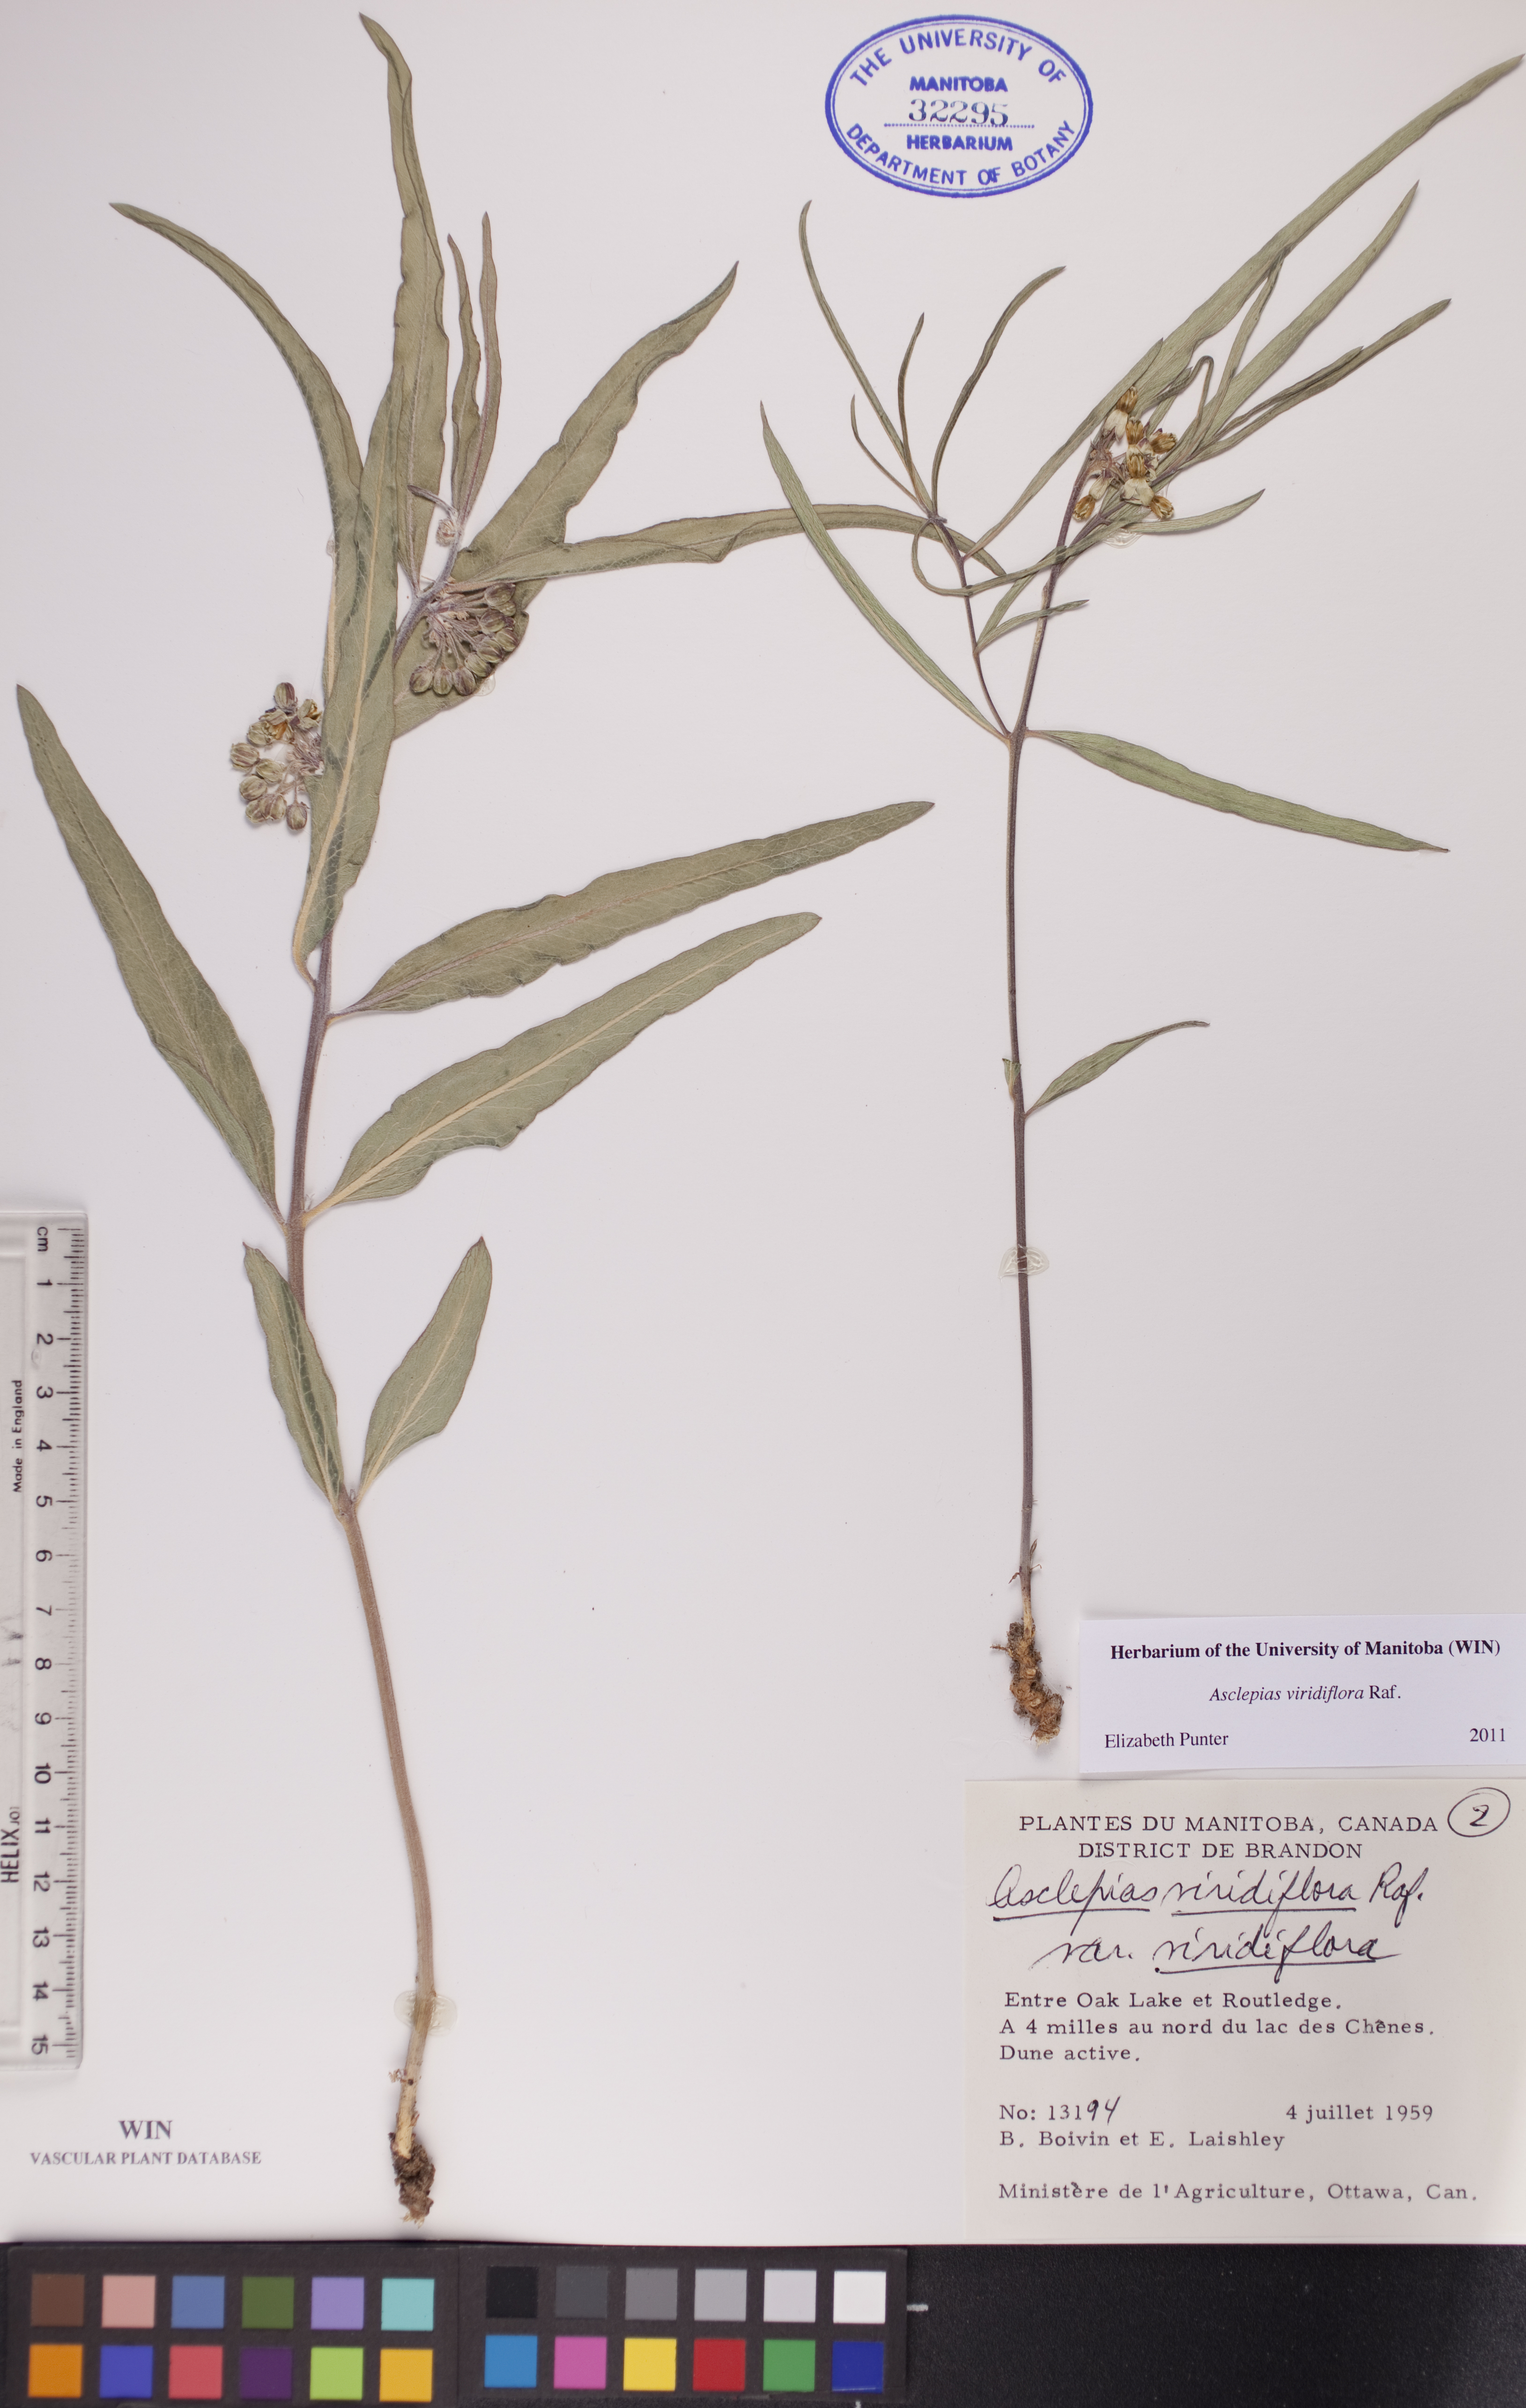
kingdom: Plantae
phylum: Tracheophyta
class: Magnoliopsida
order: Gentianales
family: Apocynaceae
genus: Asclepias
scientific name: Asclepias viridiflora
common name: Green comet milkweed
